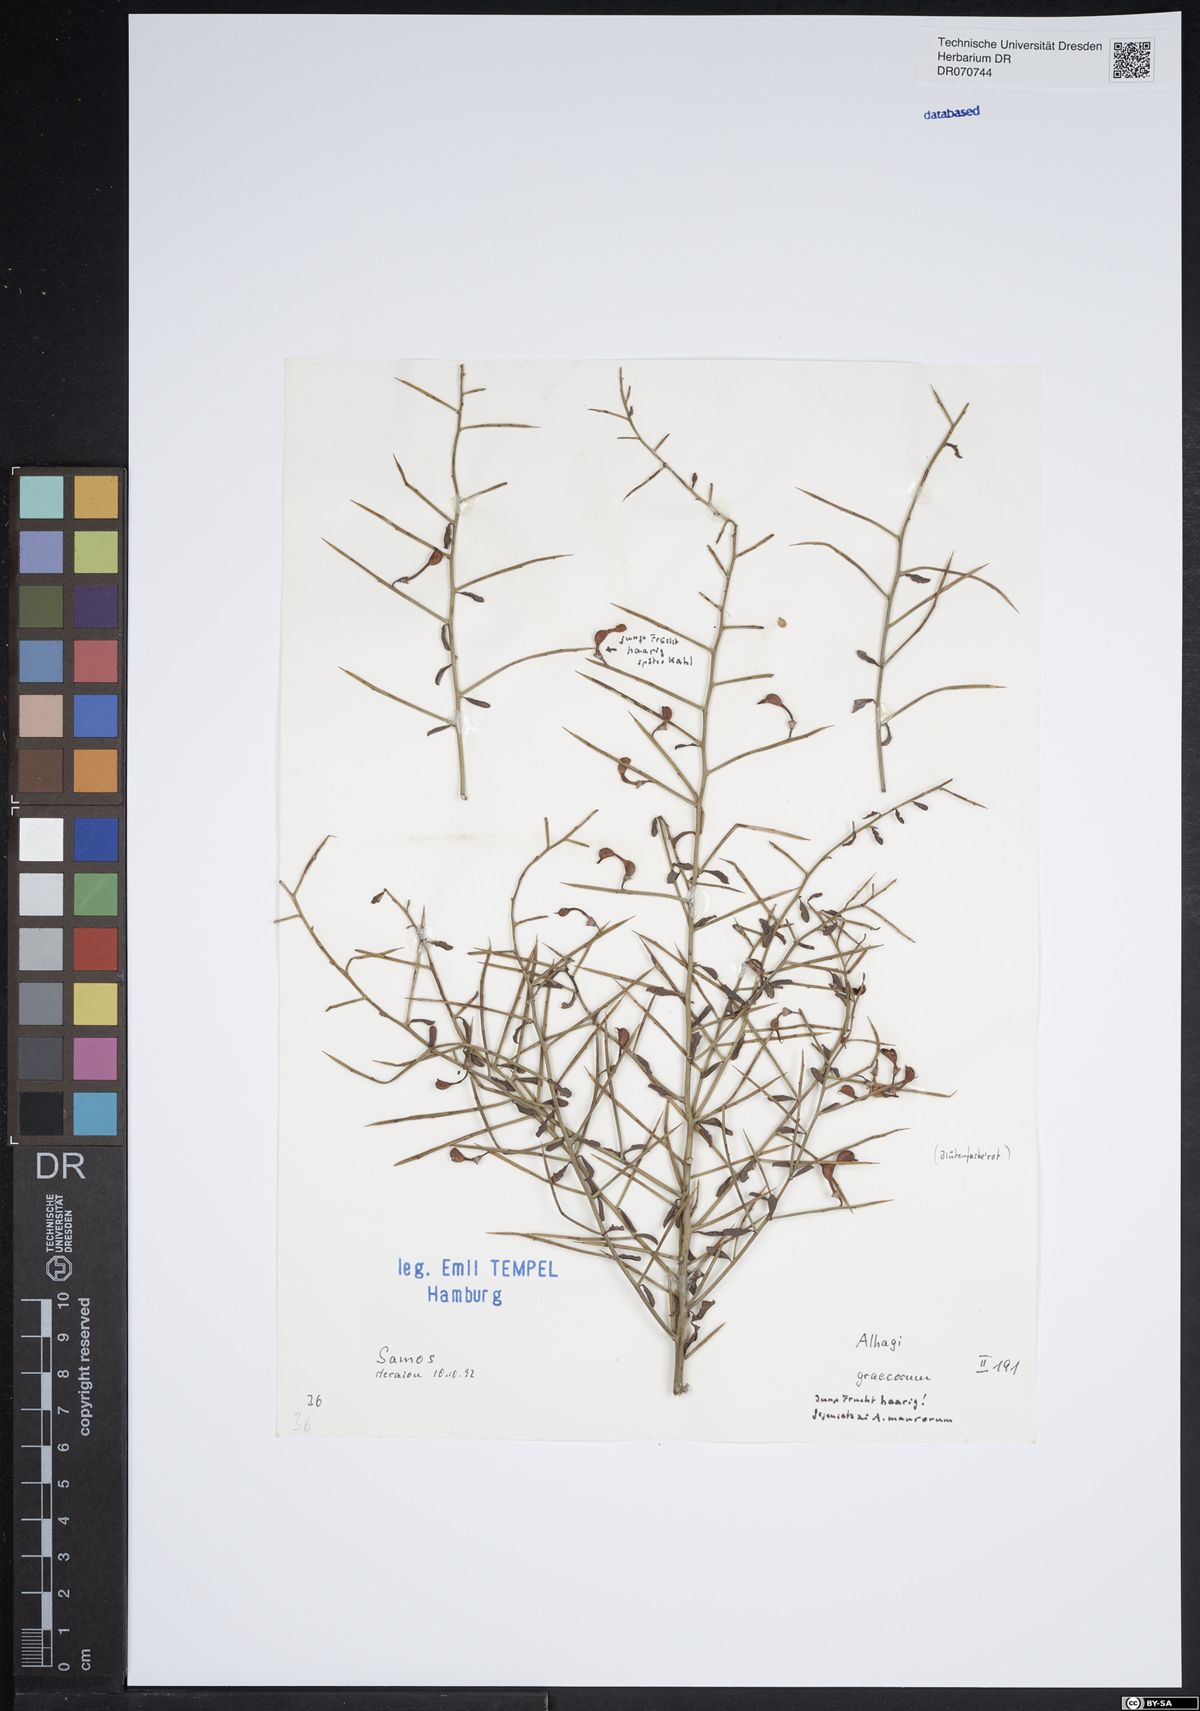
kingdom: Plantae
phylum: Tracheophyta
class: Magnoliopsida
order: Fabales
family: Fabaceae
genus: Alhagi
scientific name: Alhagi graecorum
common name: Persian mannaplant
